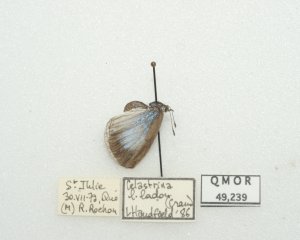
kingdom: Animalia
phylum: Arthropoda
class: Insecta
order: Lepidoptera
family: Lycaenidae
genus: Celastrina
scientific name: Celastrina lucia
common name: Northern Spring Azure
